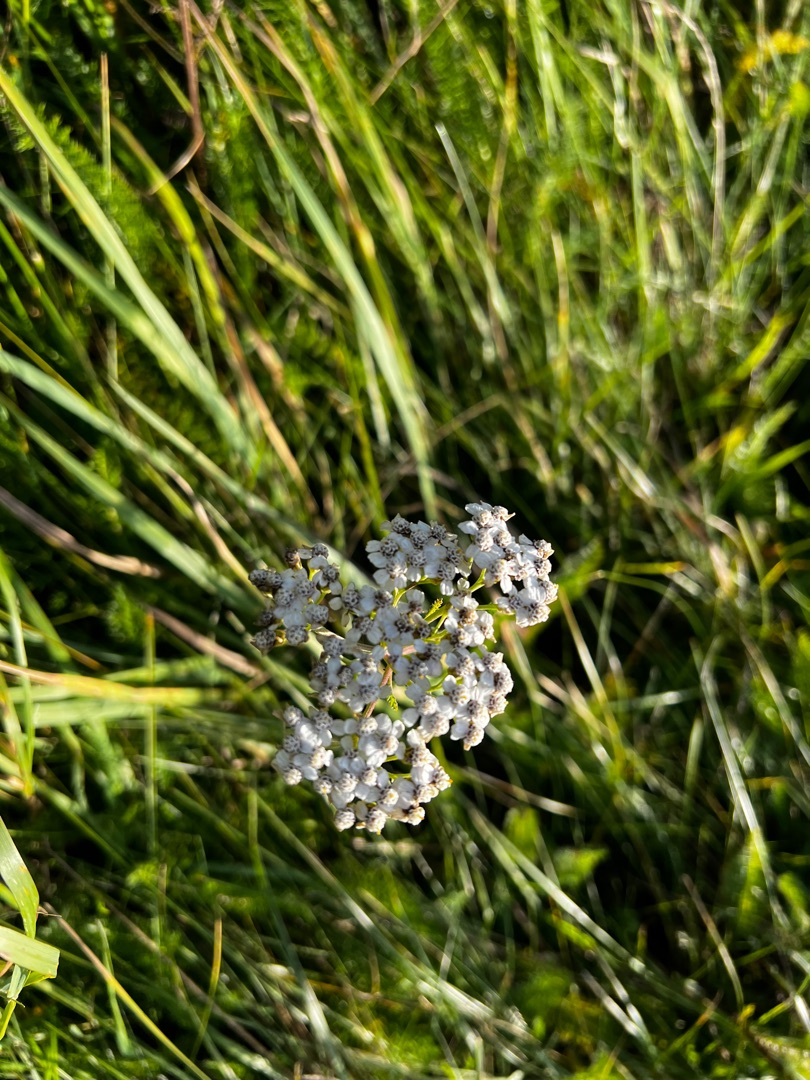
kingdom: Plantae
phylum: Tracheophyta
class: Magnoliopsida
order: Asterales
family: Asteraceae
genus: Achillea
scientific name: Achillea millefolium
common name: Almindelig røllike
